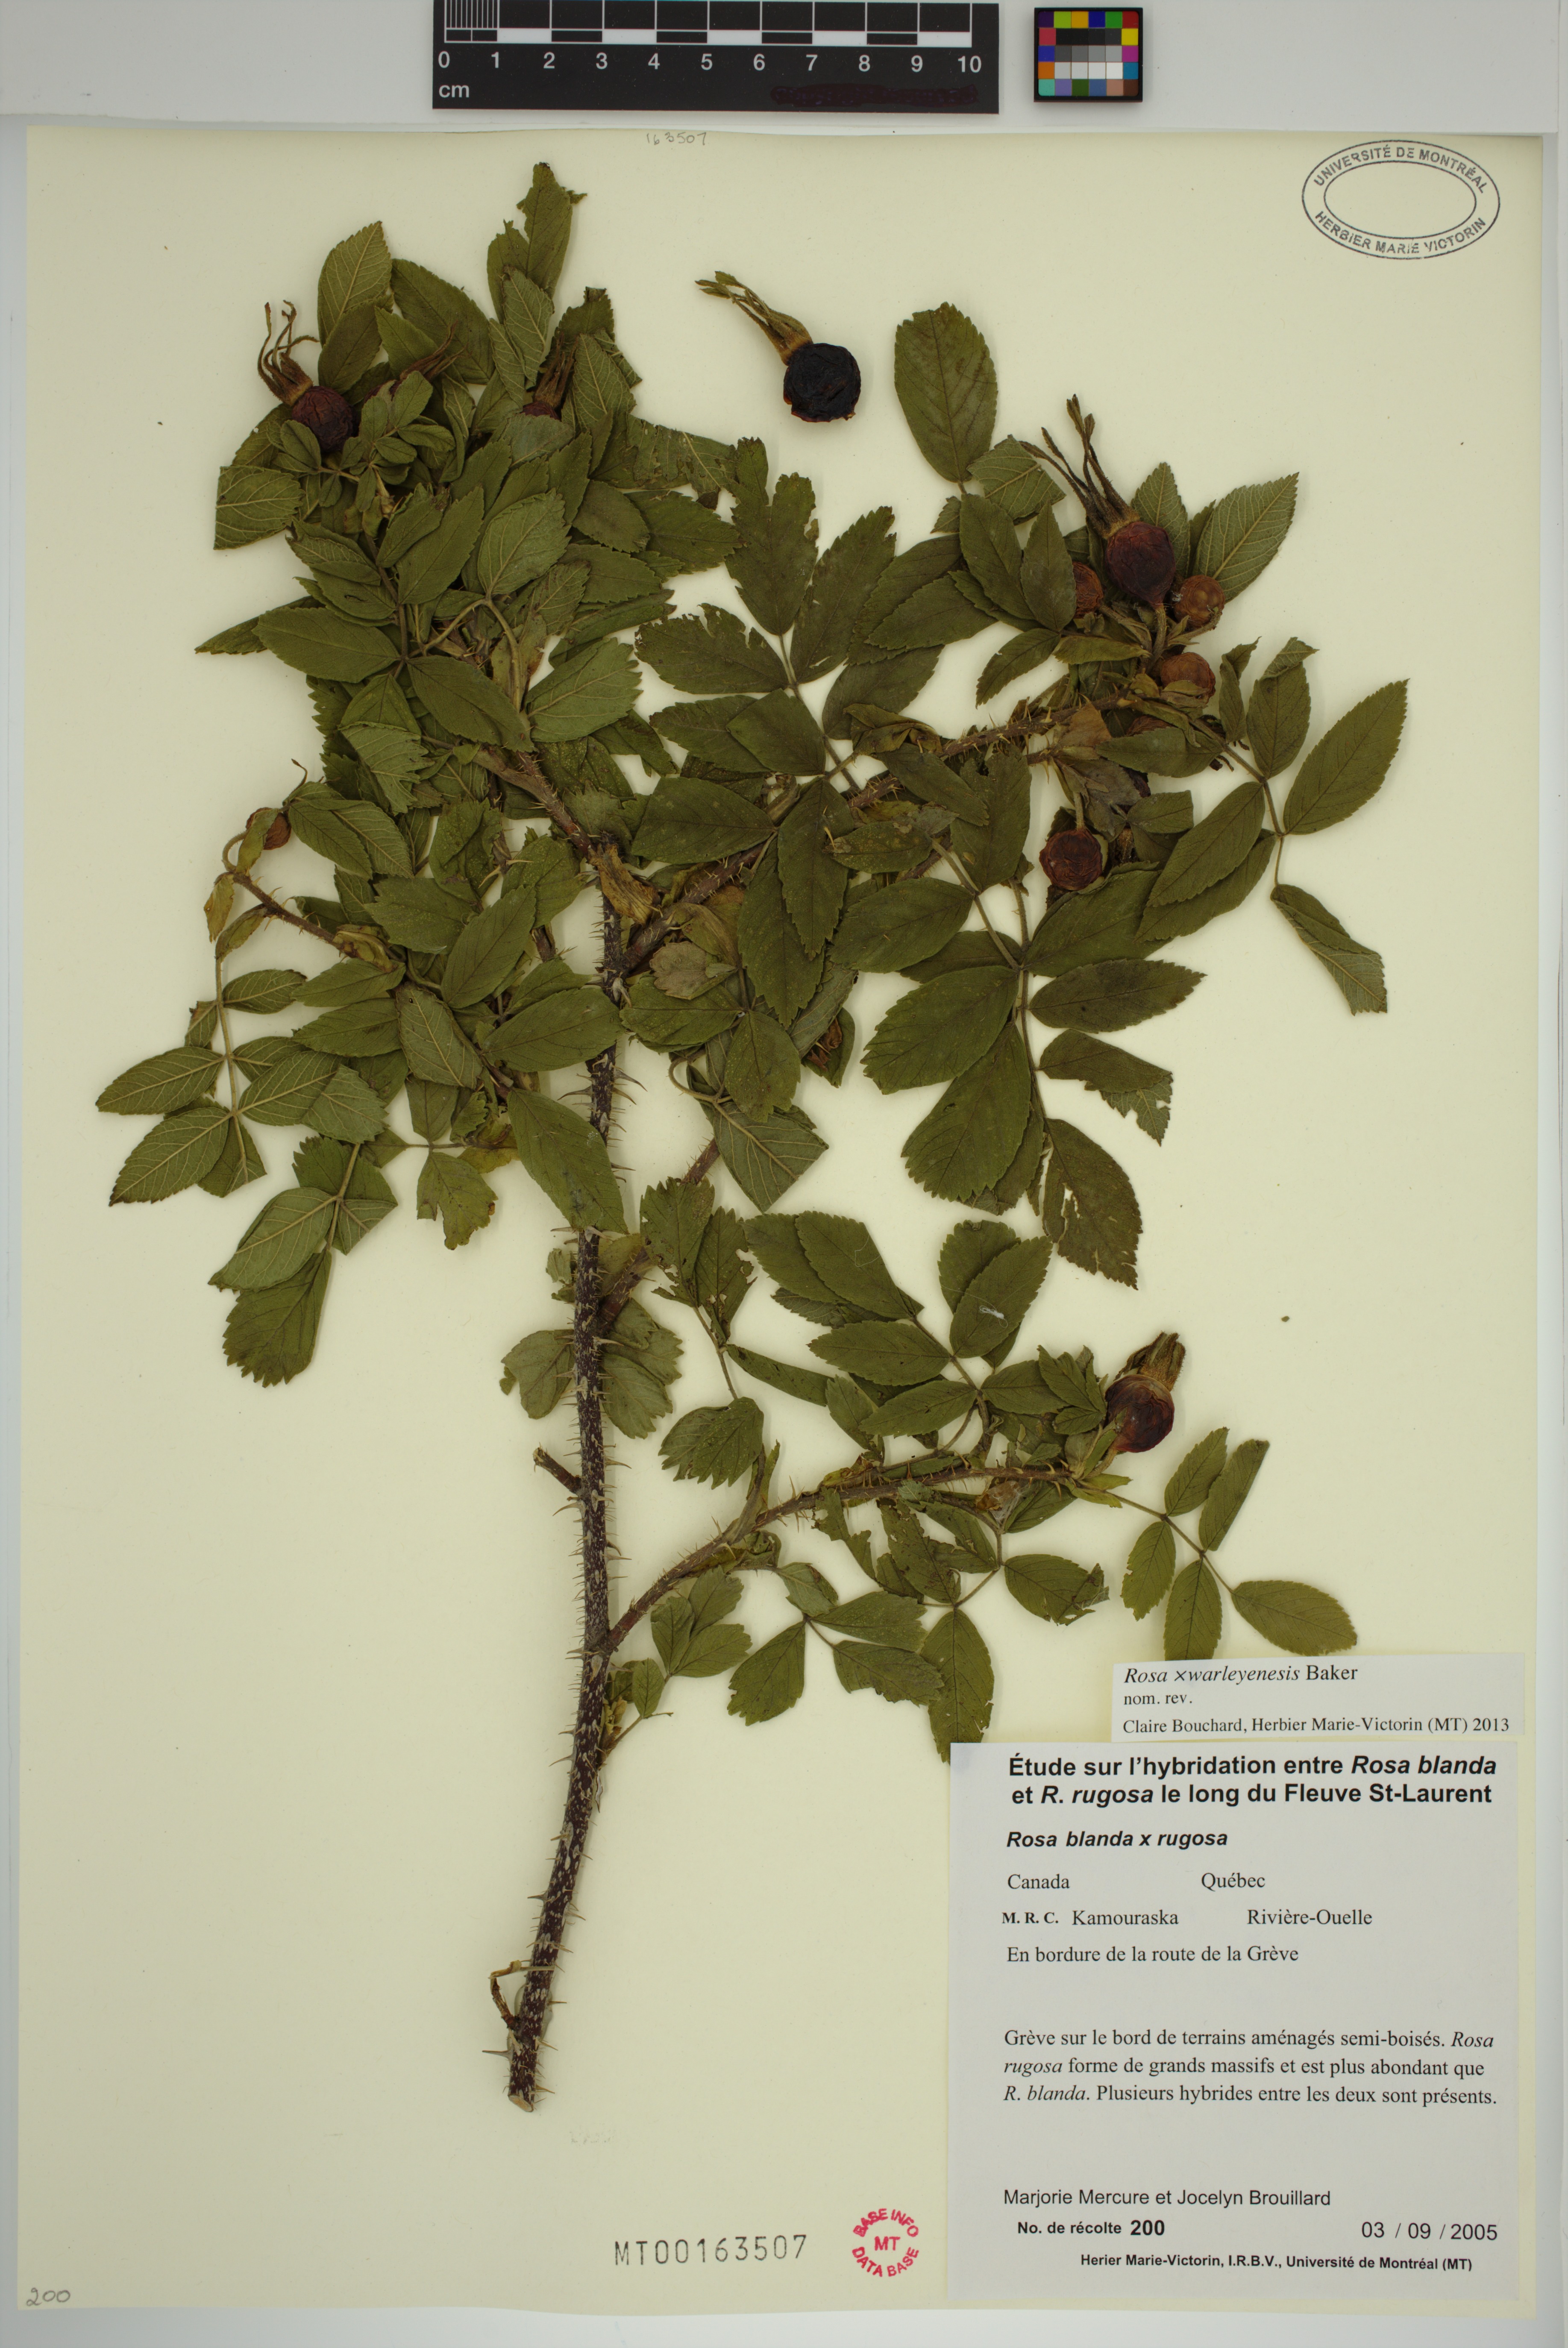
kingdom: Plantae
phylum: Tracheophyta
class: Magnoliopsida
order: Rosales
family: Rosaceae
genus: Rosa
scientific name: Rosa warleyensis
